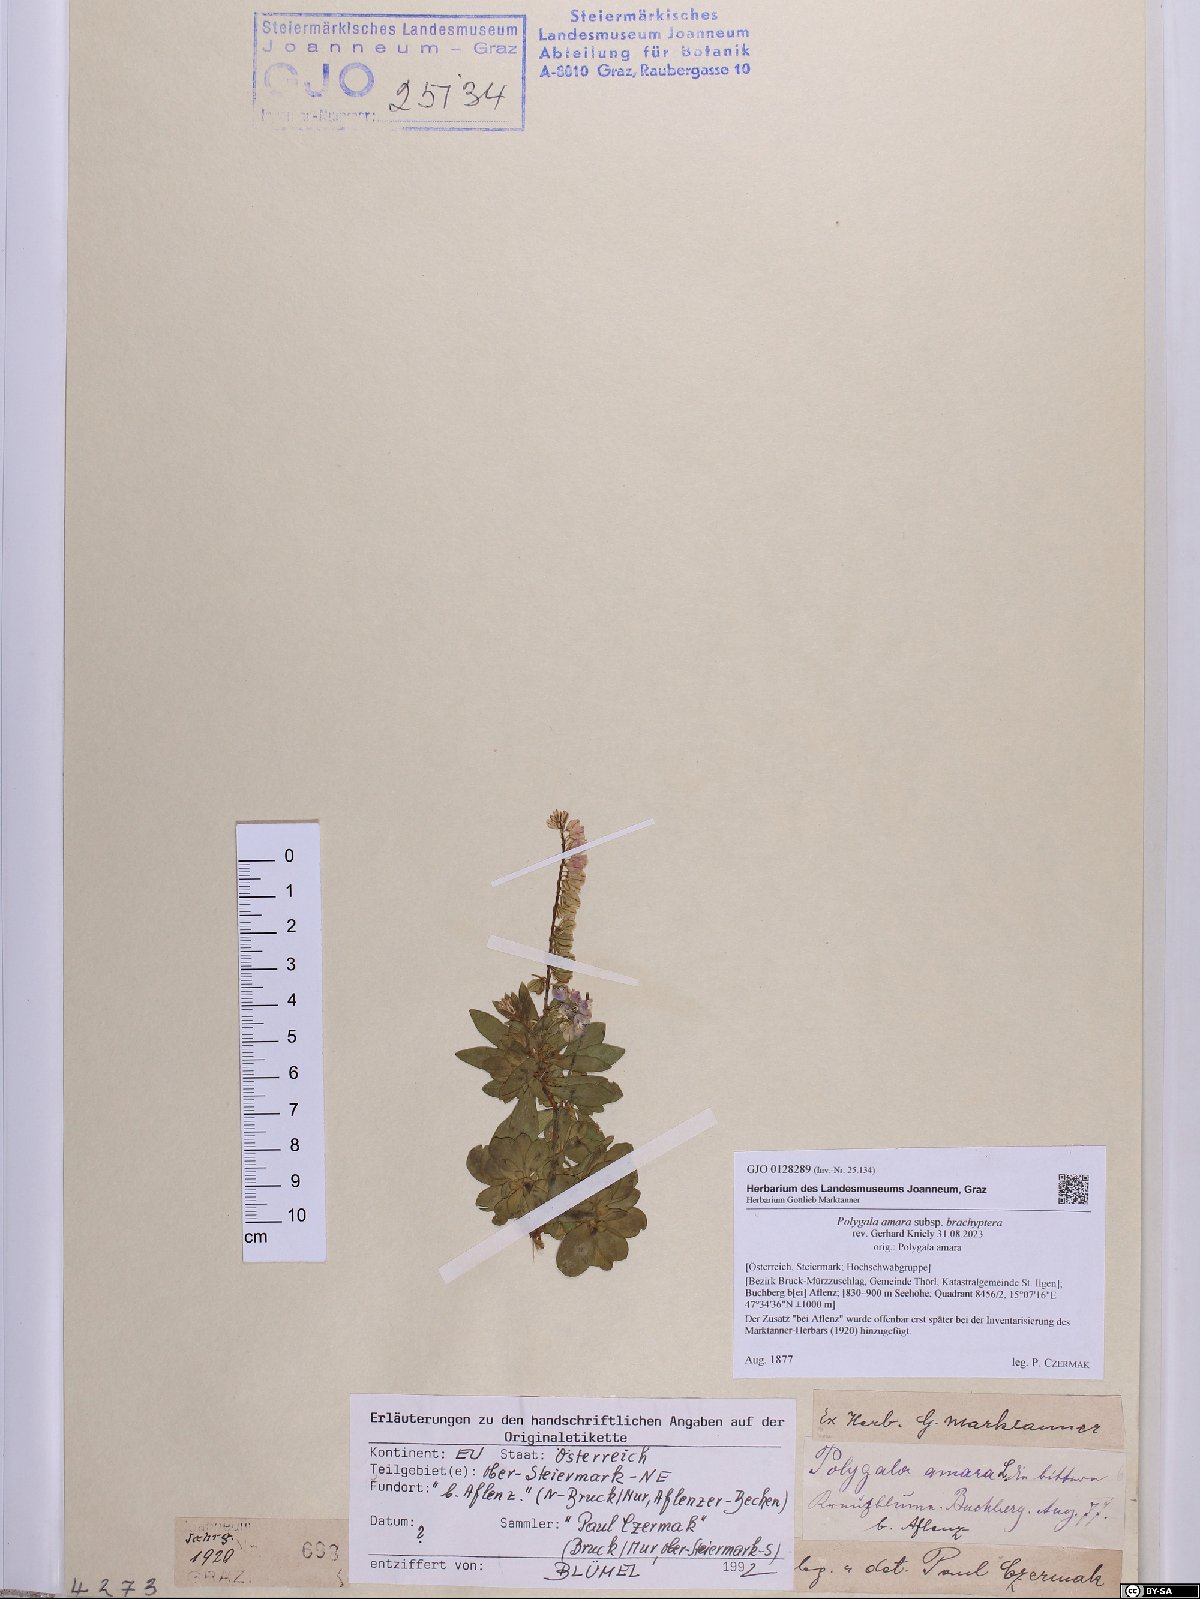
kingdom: Plantae
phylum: Tracheophyta
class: Magnoliopsida
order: Fabales
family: Polygalaceae
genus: Polygala
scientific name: Polygala amara
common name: Milkwort
